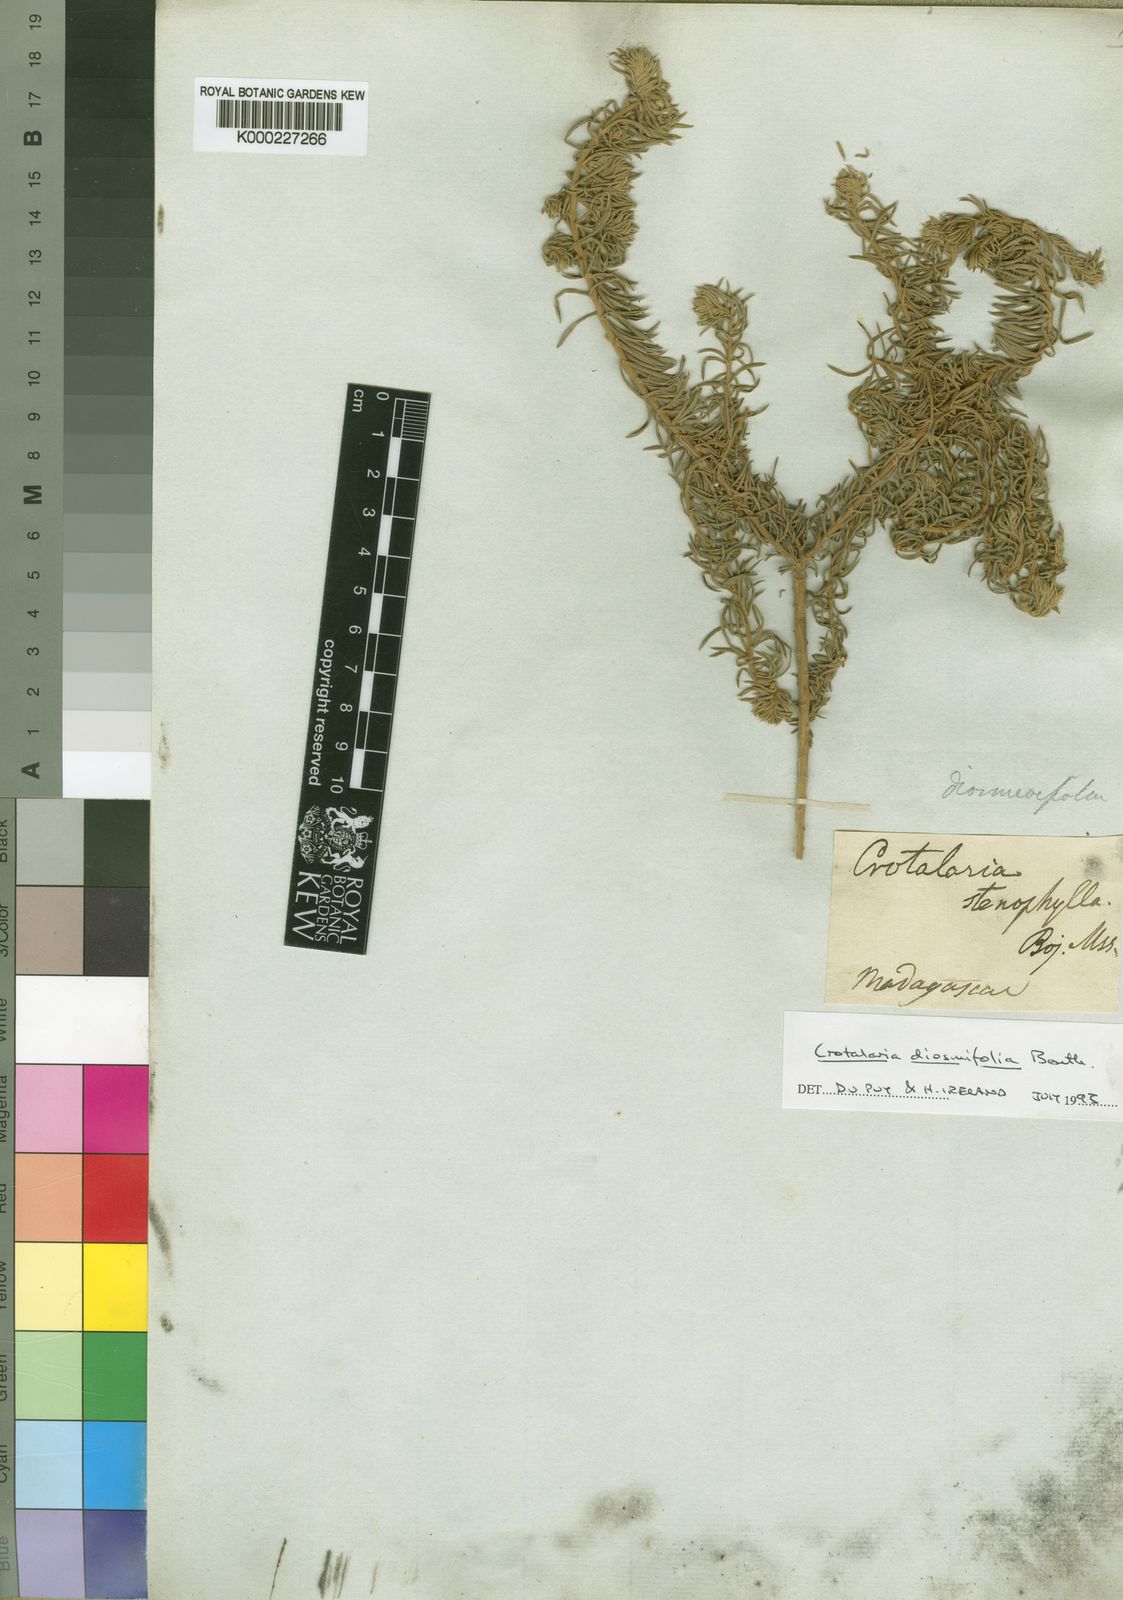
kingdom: Plantae
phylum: Tracheophyta
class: Magnoliopsida
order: Fabales
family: Fabaceae
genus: Crotalaria
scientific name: Crotalaria diosmifolia
